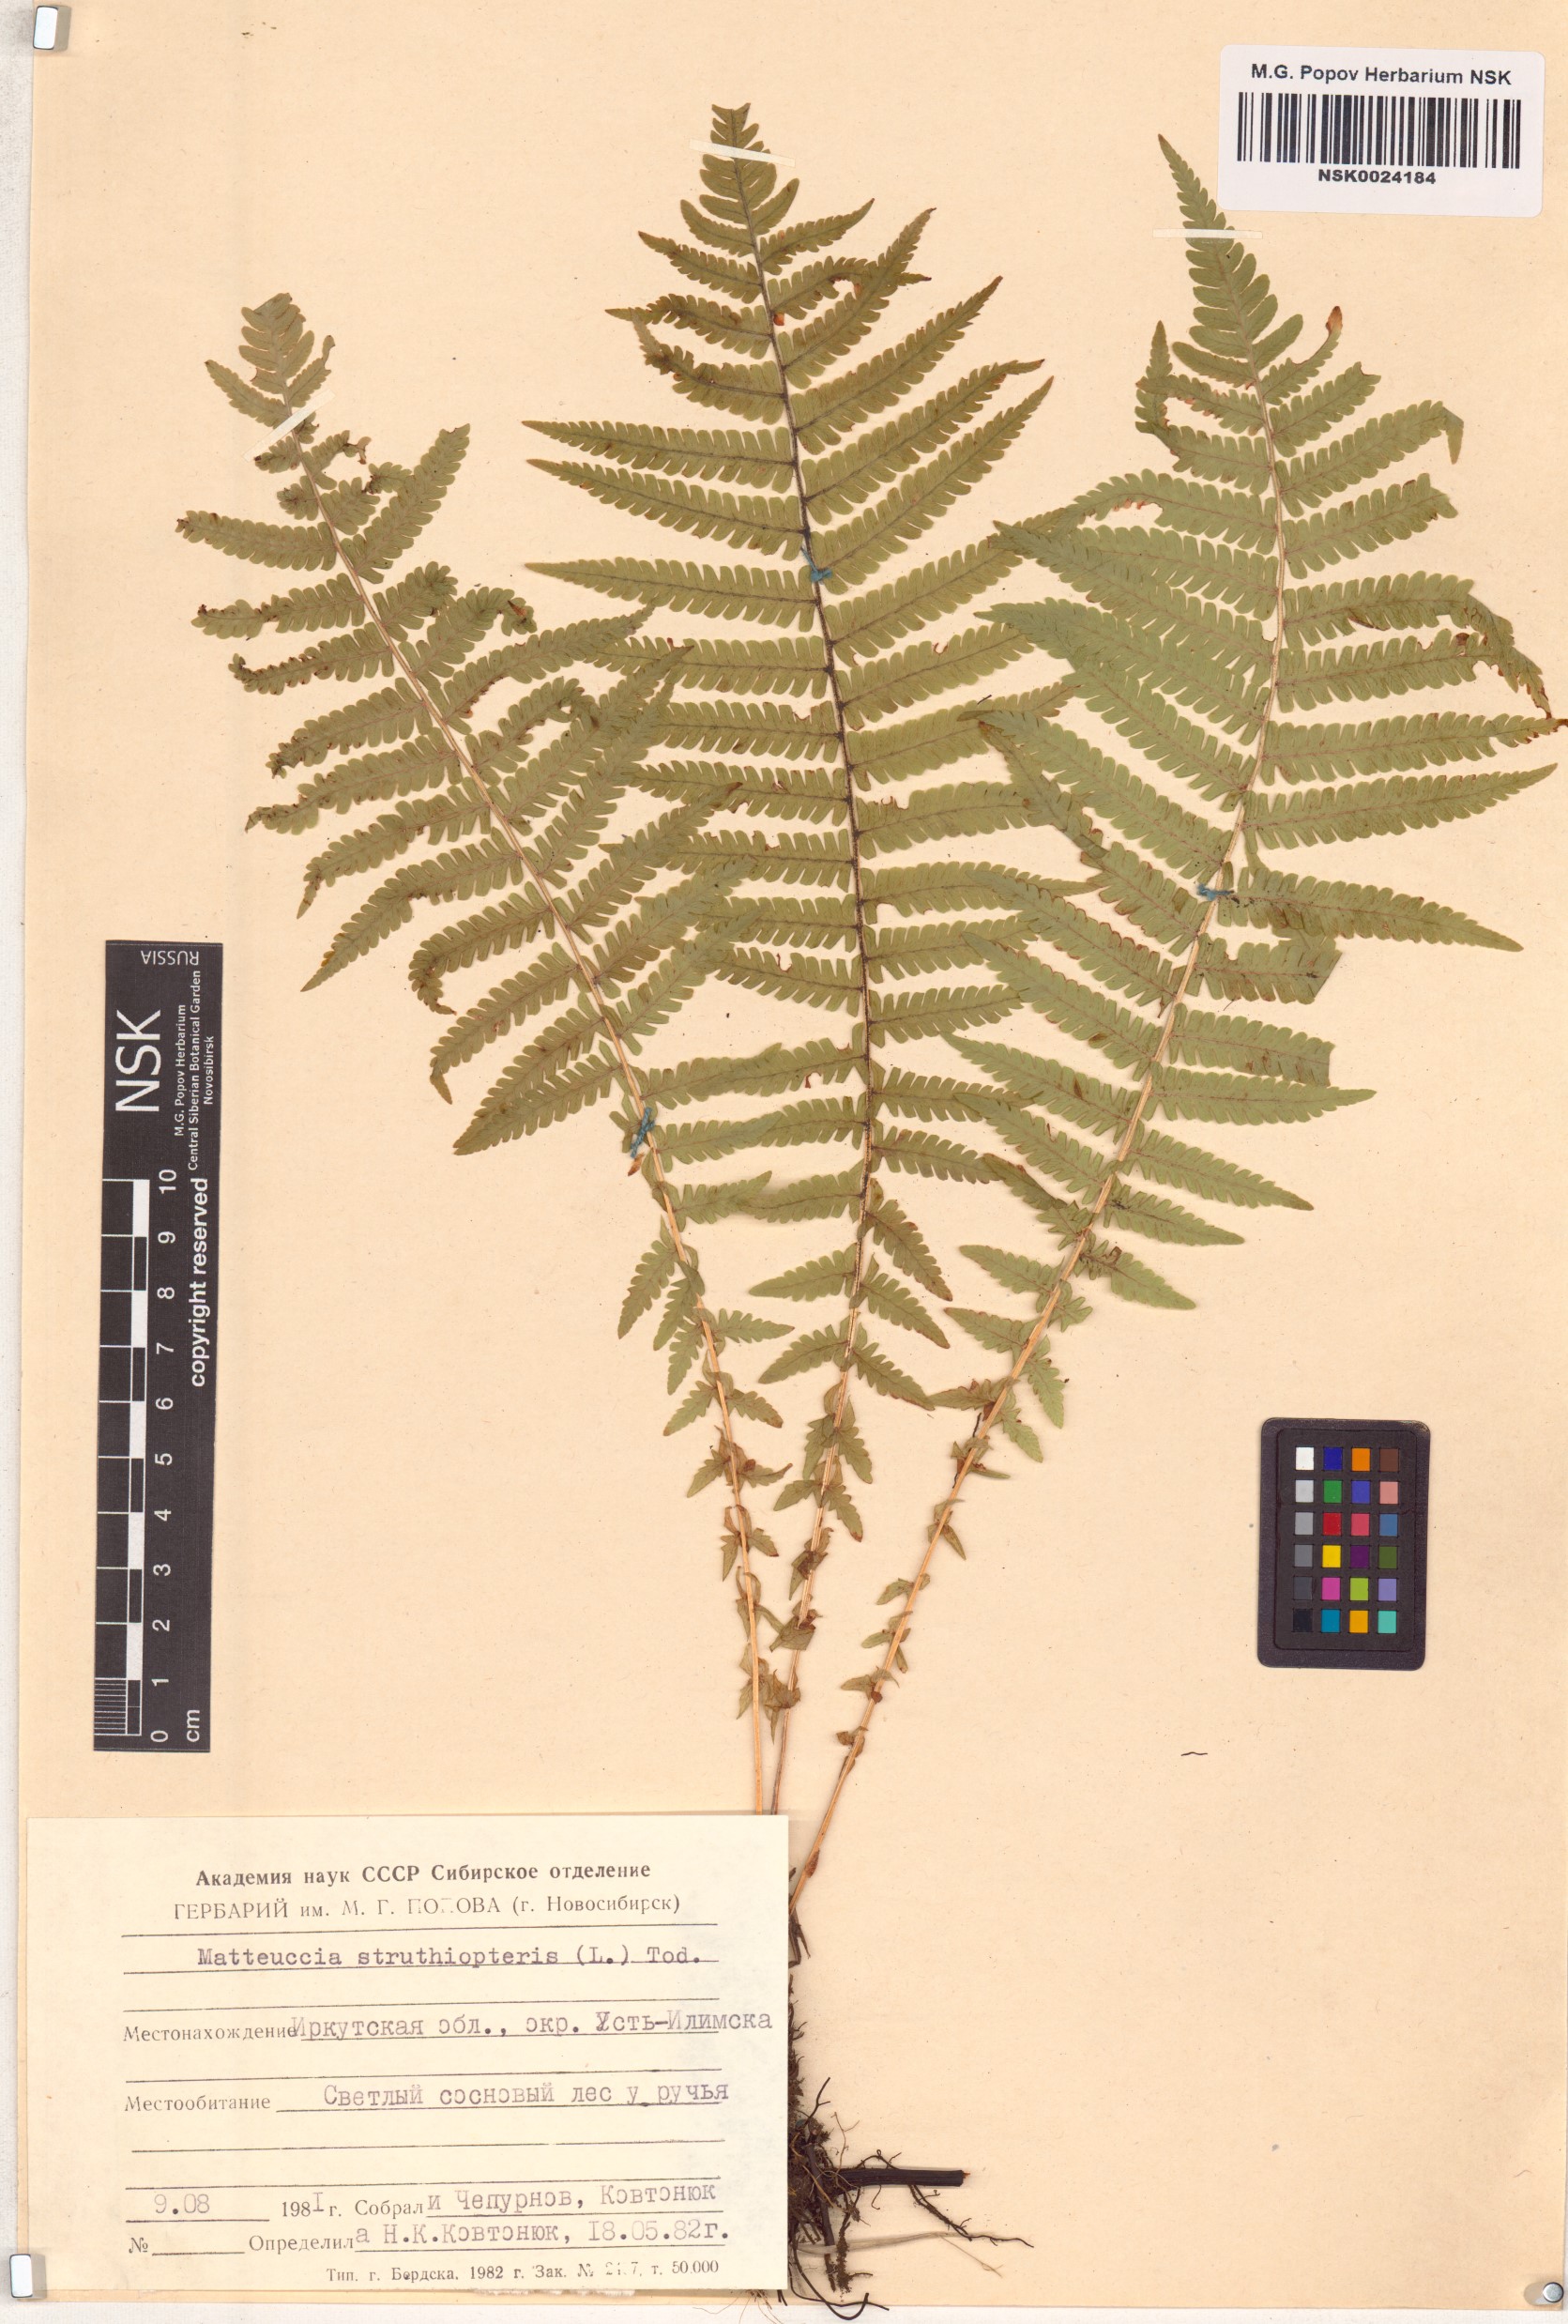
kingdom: Plantae
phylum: Tracheophyta
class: Polypodiopsida
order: Polypodiales
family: Onocleaceae
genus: Matteuccia
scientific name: Matteuccia struthiopteris
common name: Ostrich fern
